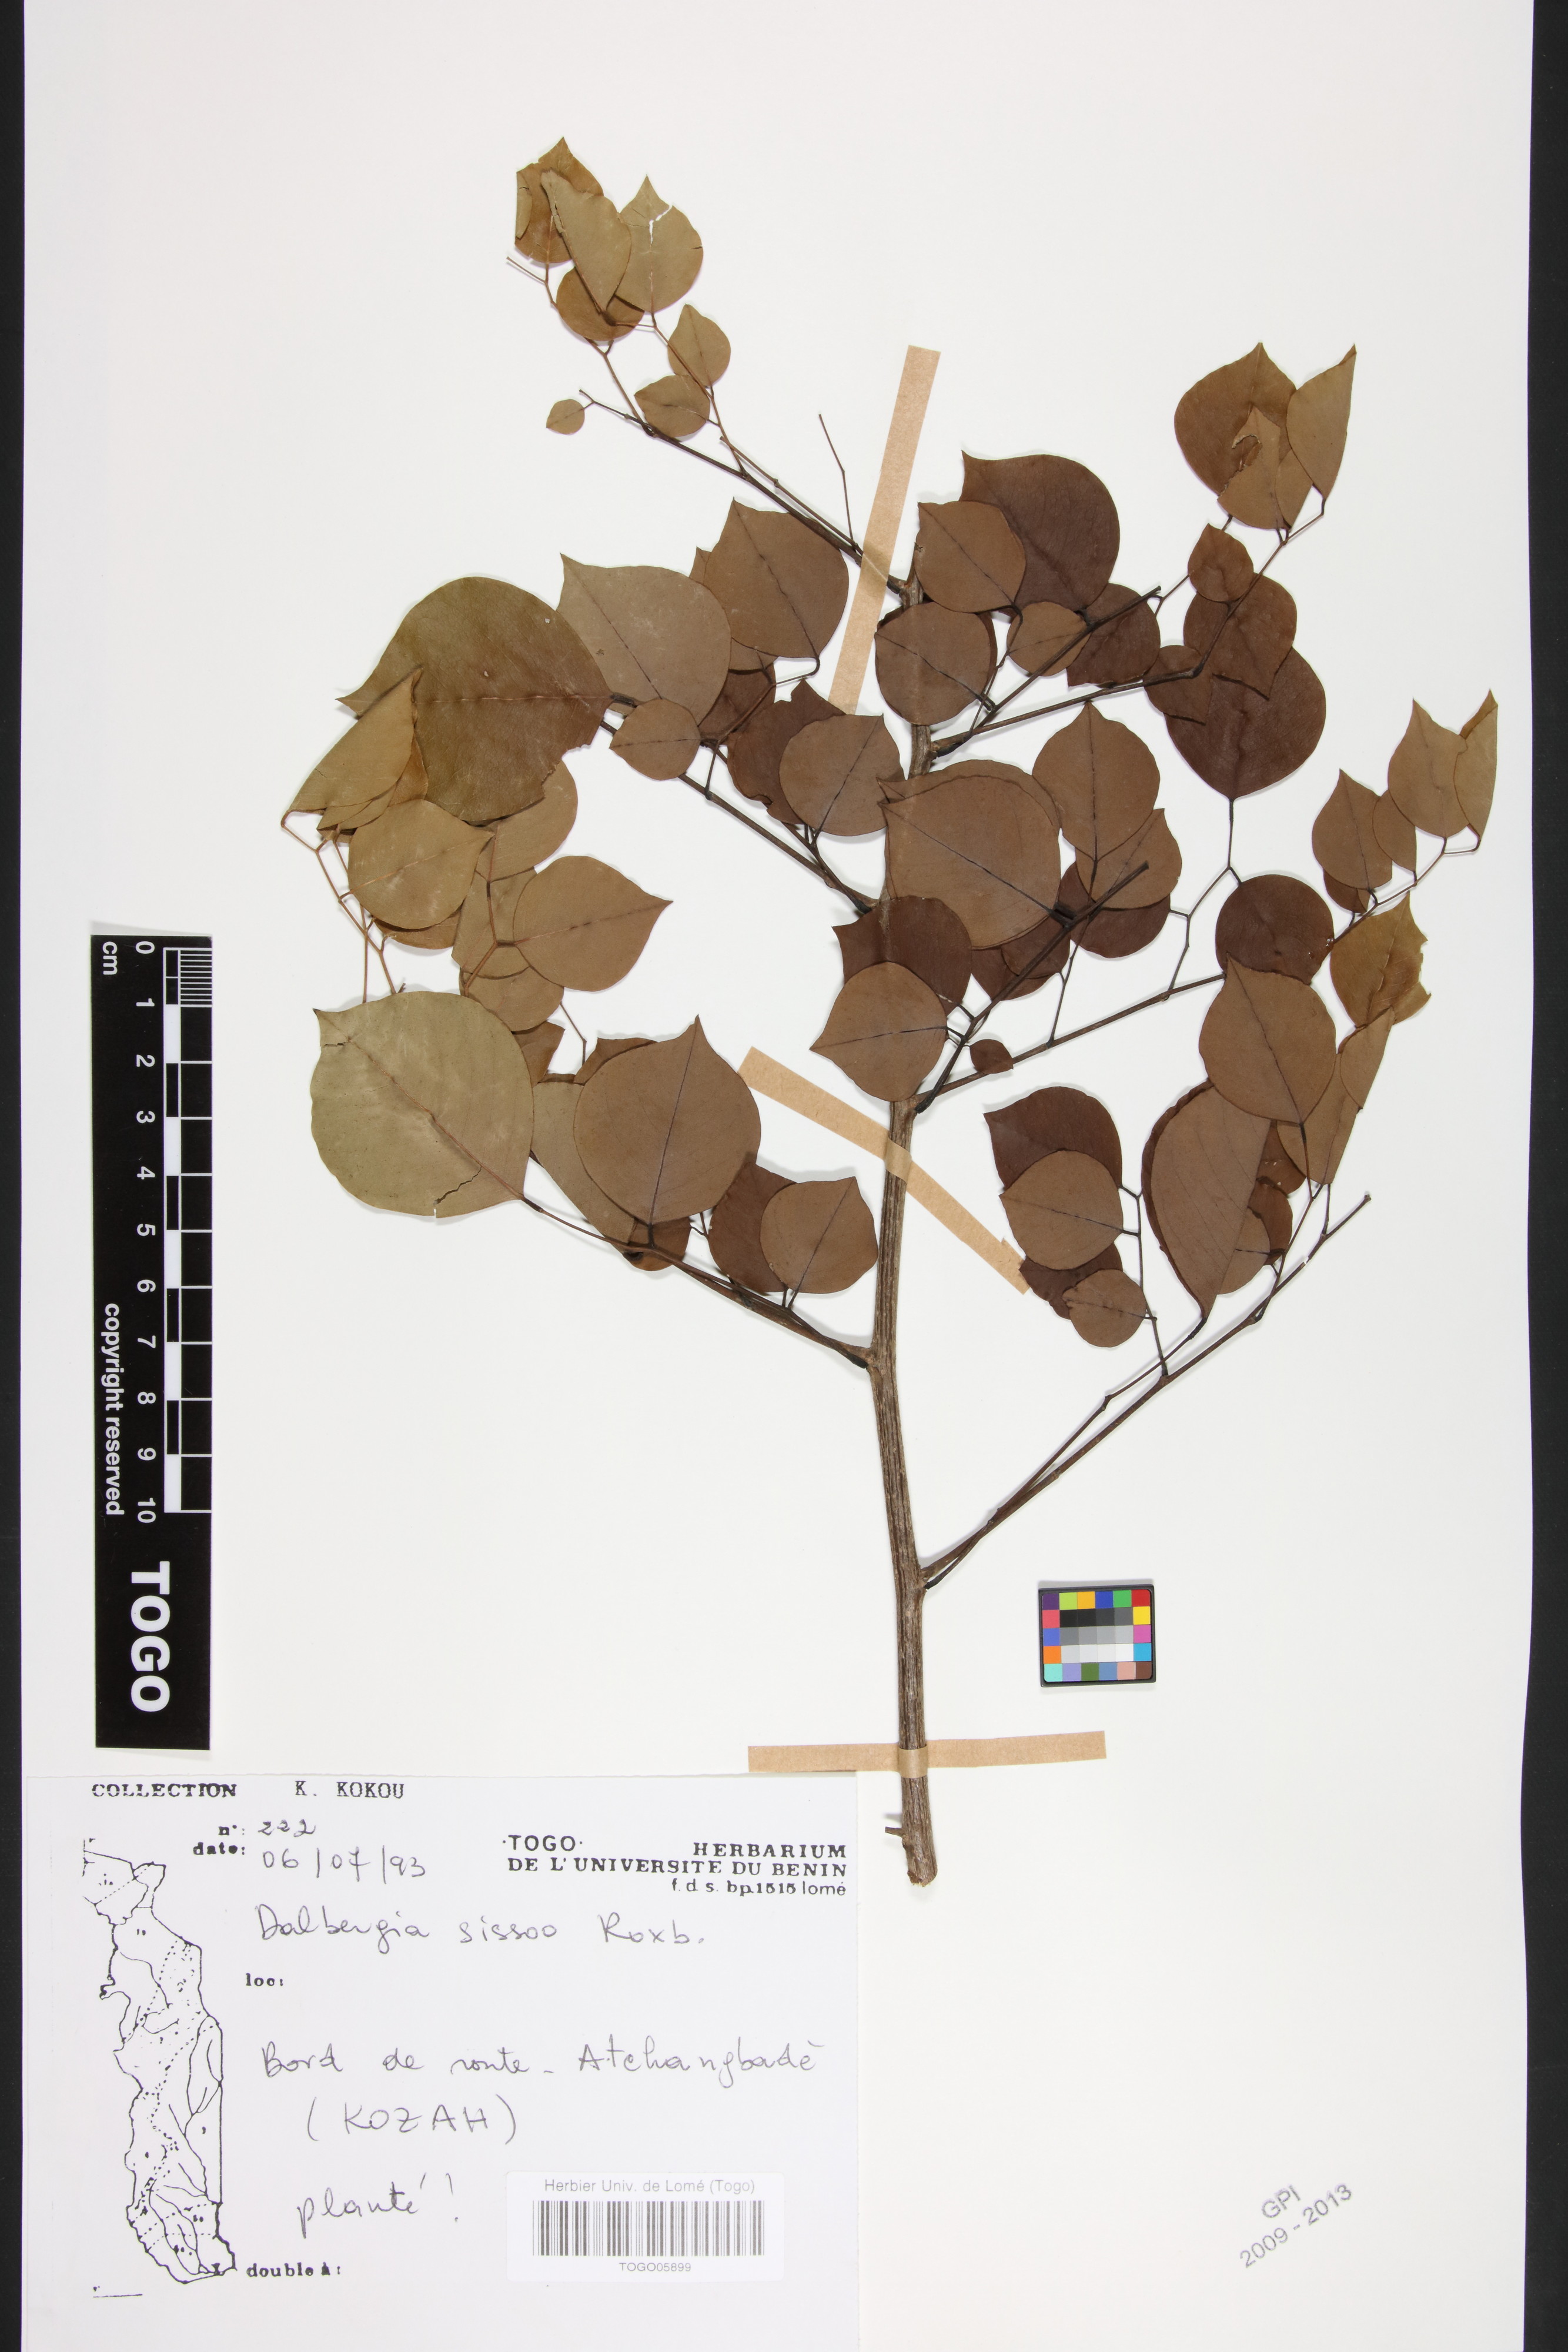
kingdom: Plantae
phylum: Tracheophyta
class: Magnoliopsida
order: Fabales
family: Fabaceae
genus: Dalbergia
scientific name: Dalbergia sissoo
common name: Indian rosewood
